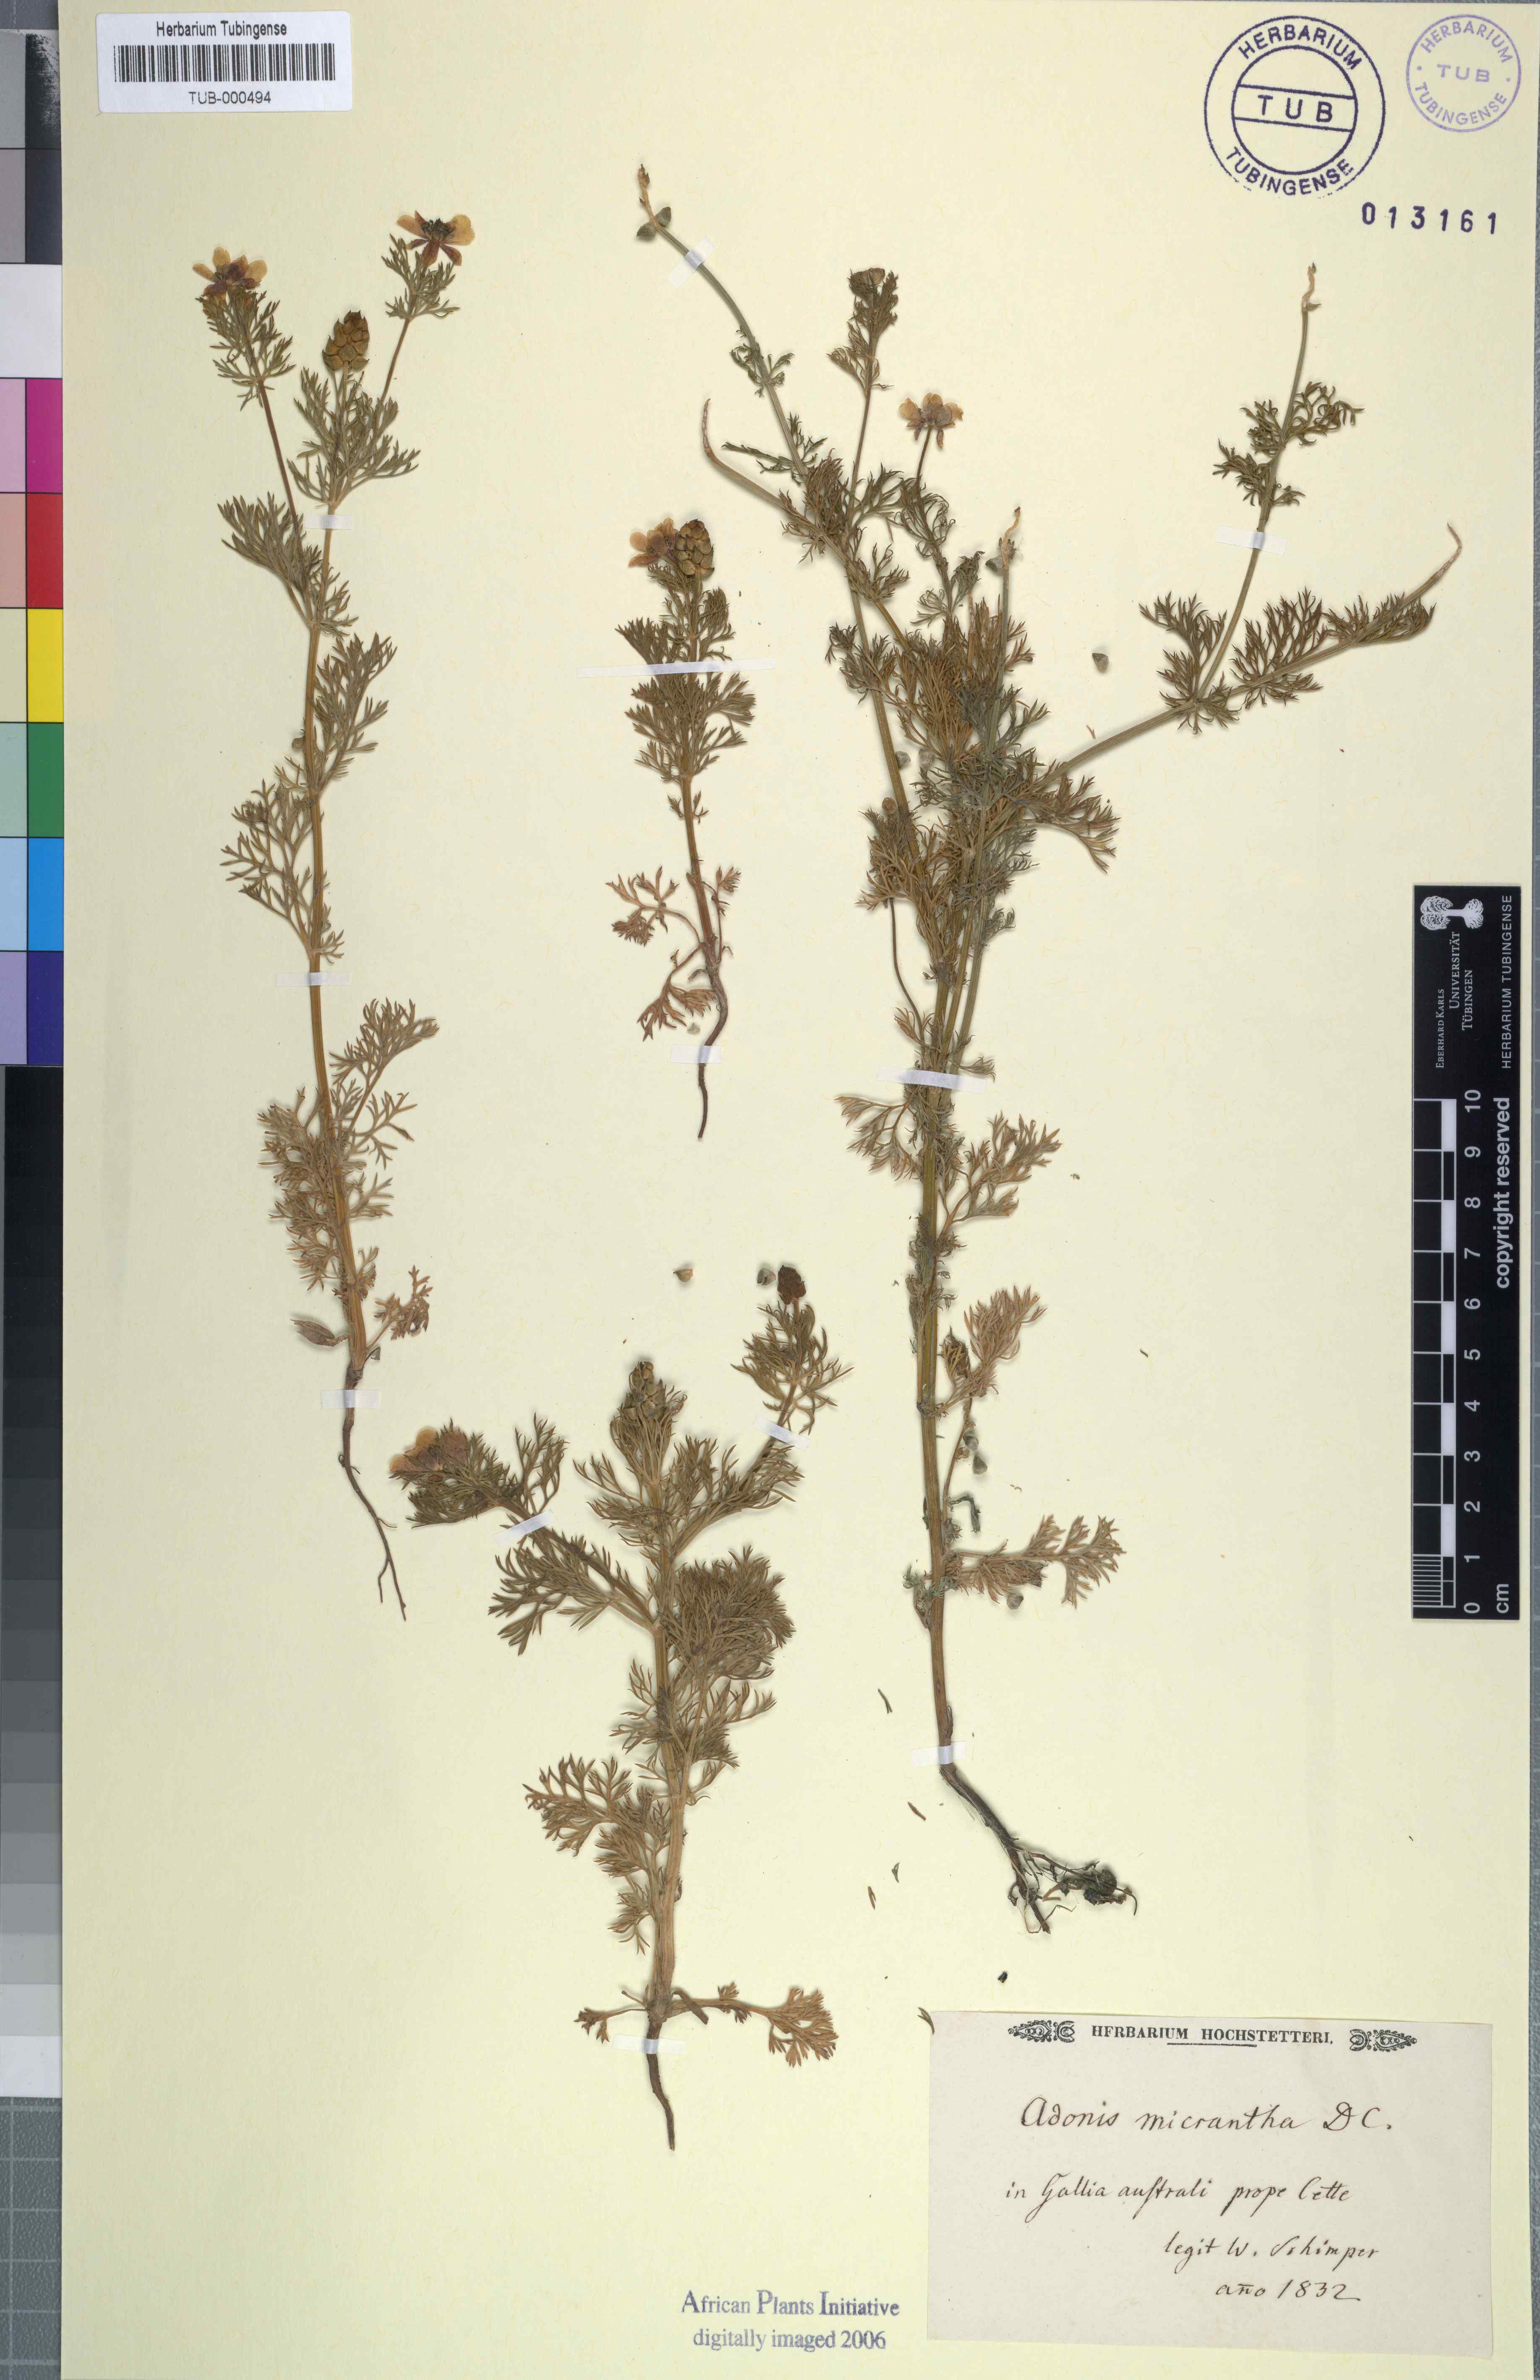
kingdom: Plantae
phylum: Tracheophyta
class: Magnoliopsida
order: Ranunculales
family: Ranunculaceae
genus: Adonis
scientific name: Adonis annua
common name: Pheasant's-eye
